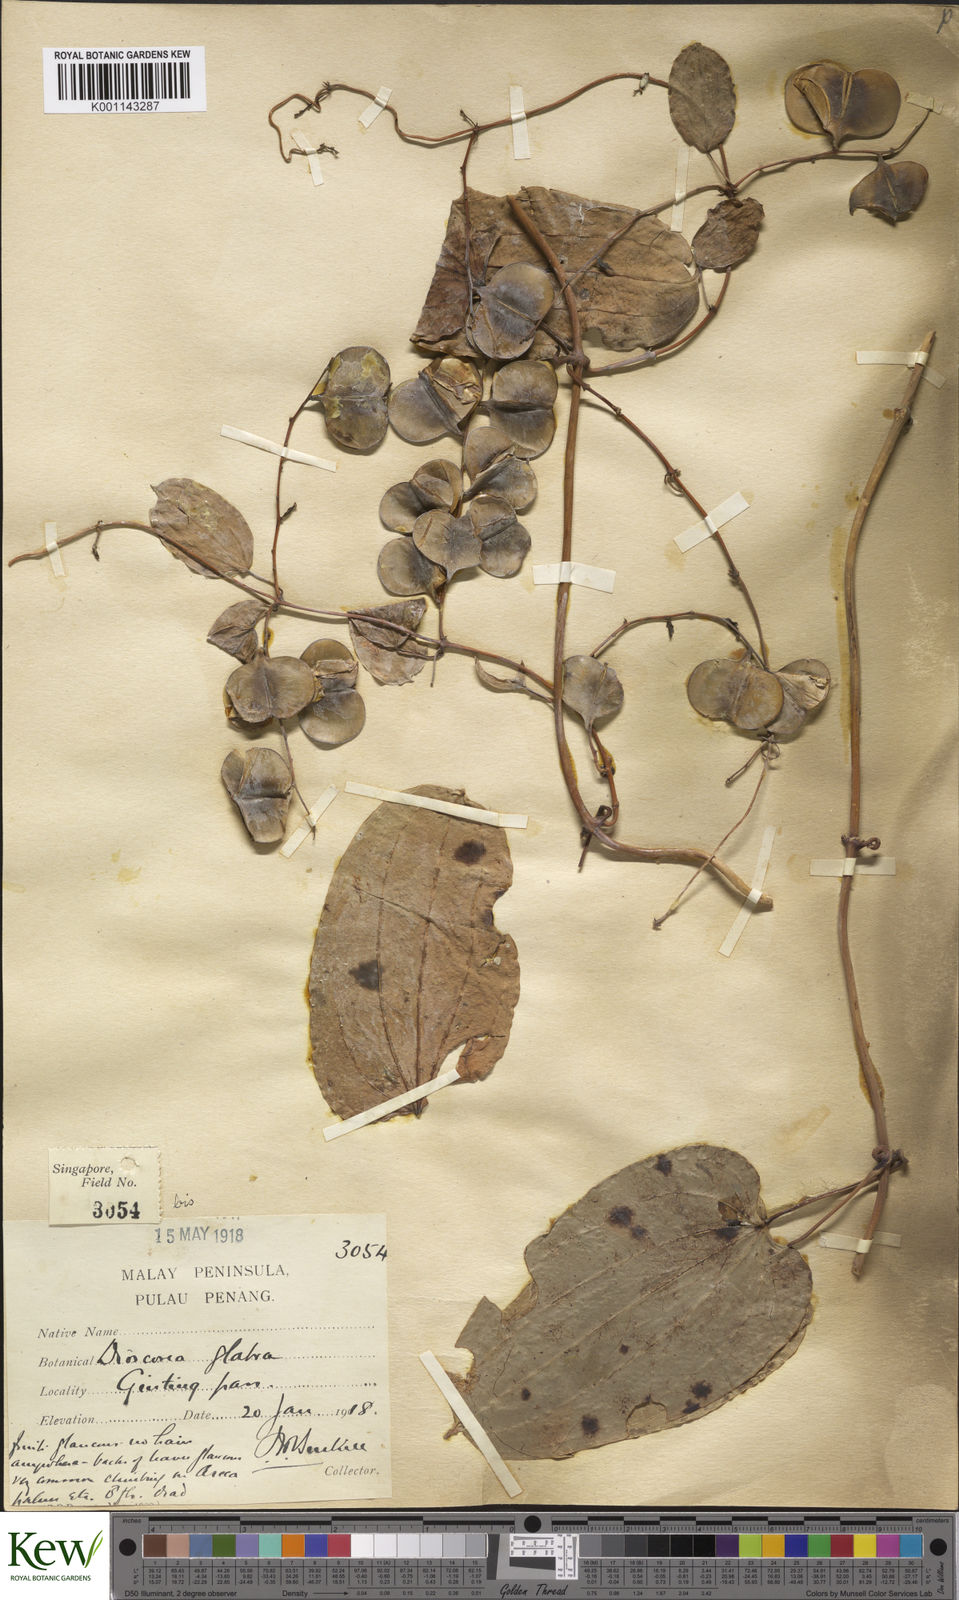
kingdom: Plantae
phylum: Tracheophyta
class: Liliopsida
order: Dioscoreales
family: Dioscoreaceae
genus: Dioscorea
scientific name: Dioscorea glabra
